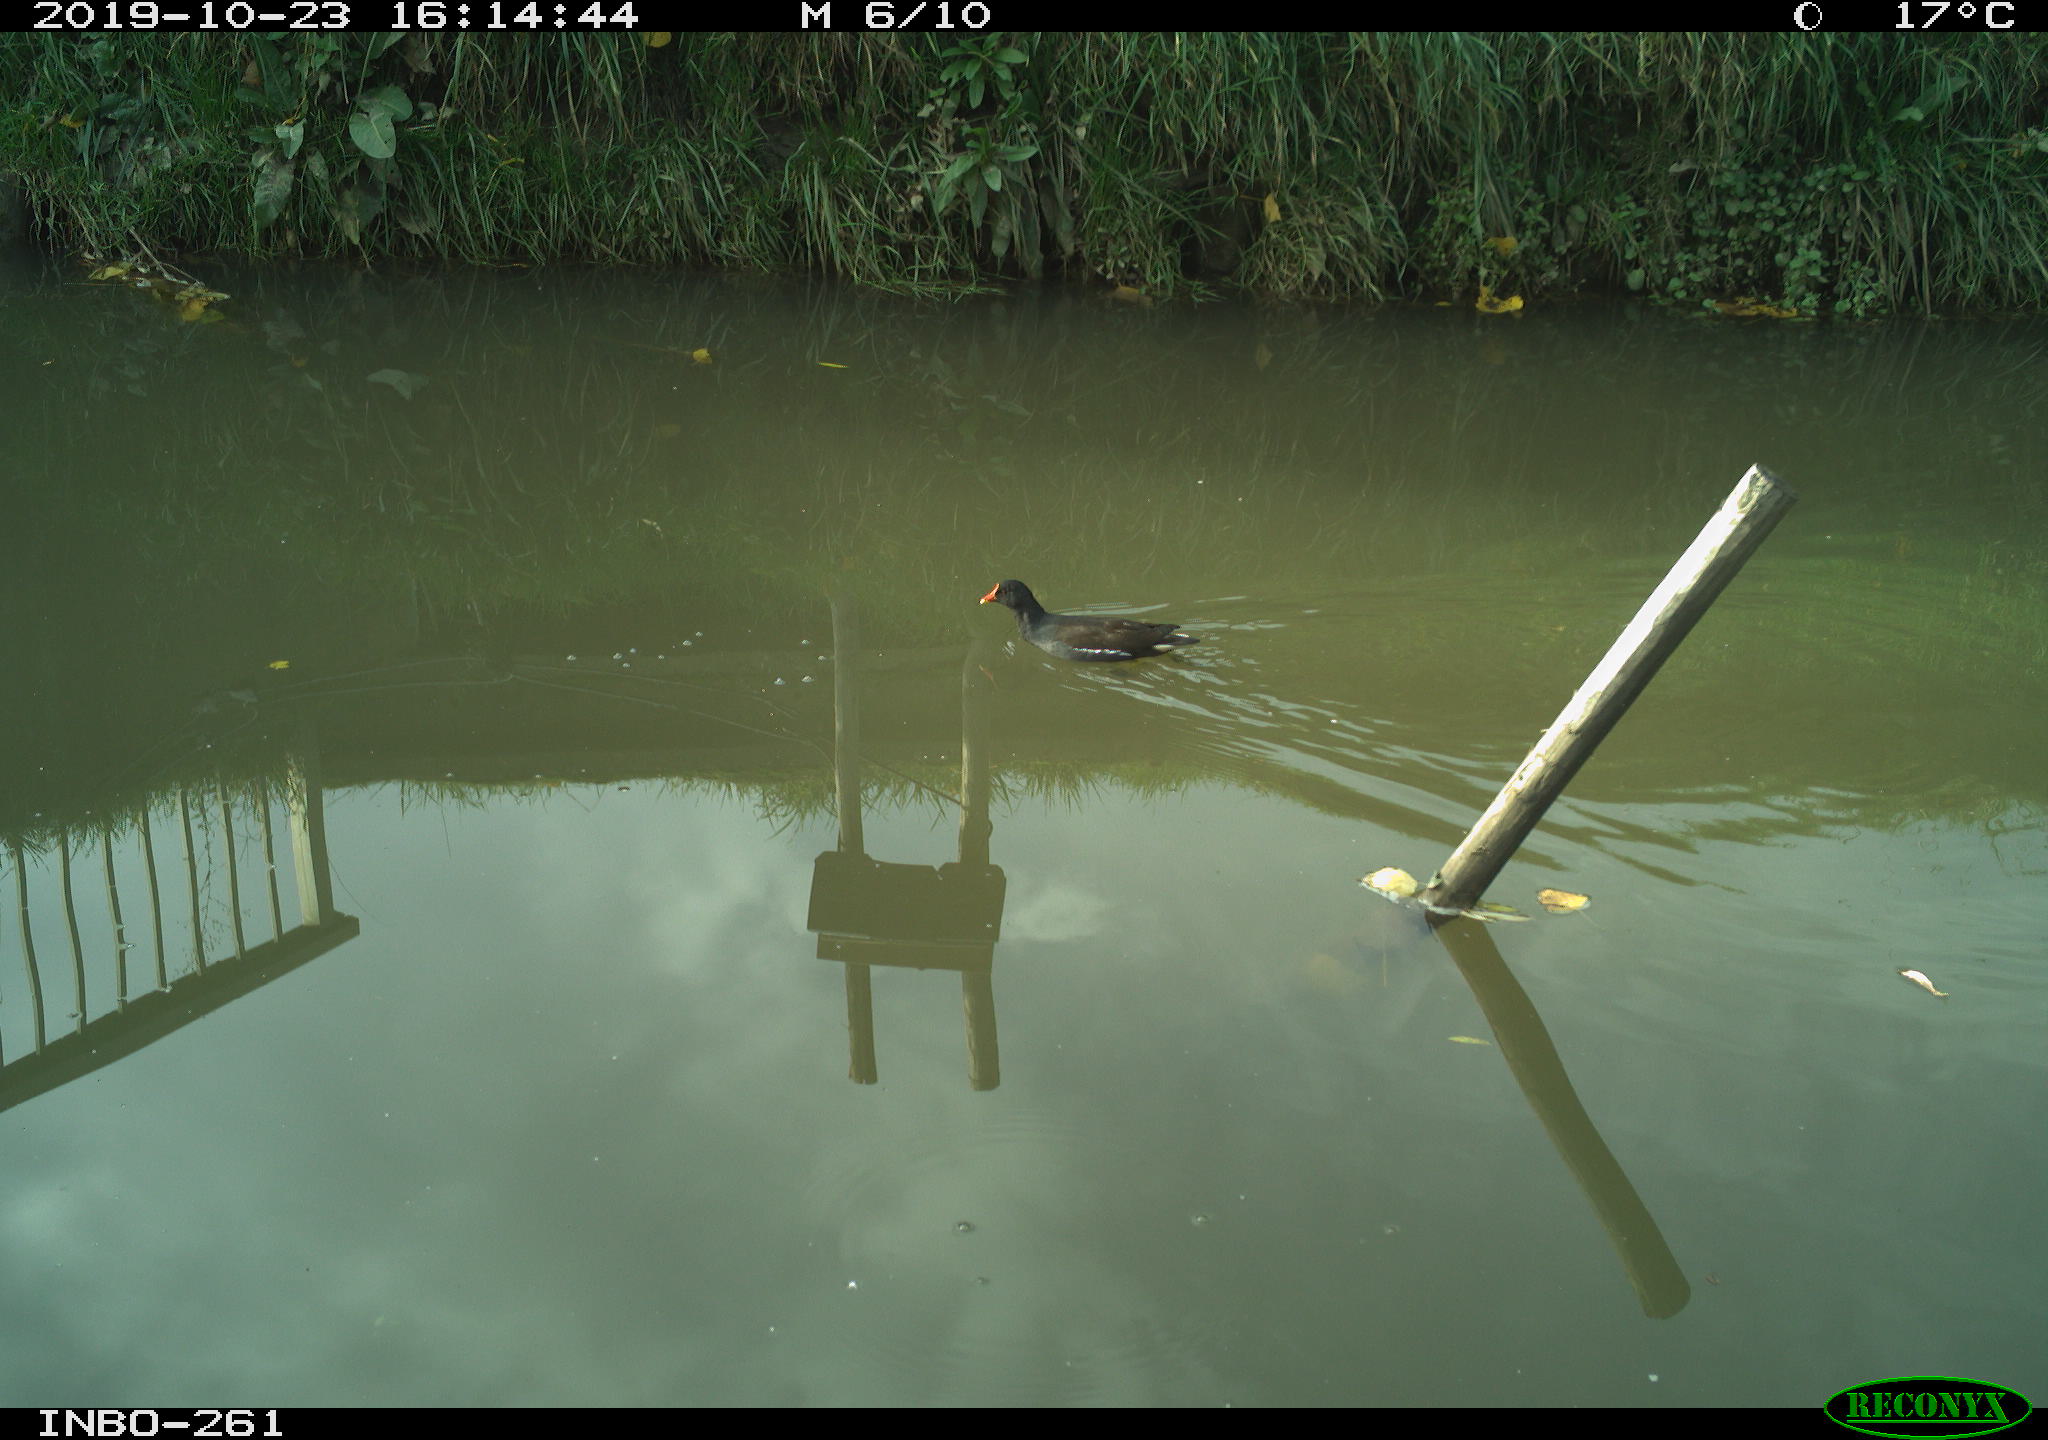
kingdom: Animalia
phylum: Chordata
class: Aves
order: Gruiformes
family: Rallidae
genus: Gallinula
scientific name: Gallinula chloropus
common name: Common moorhen
